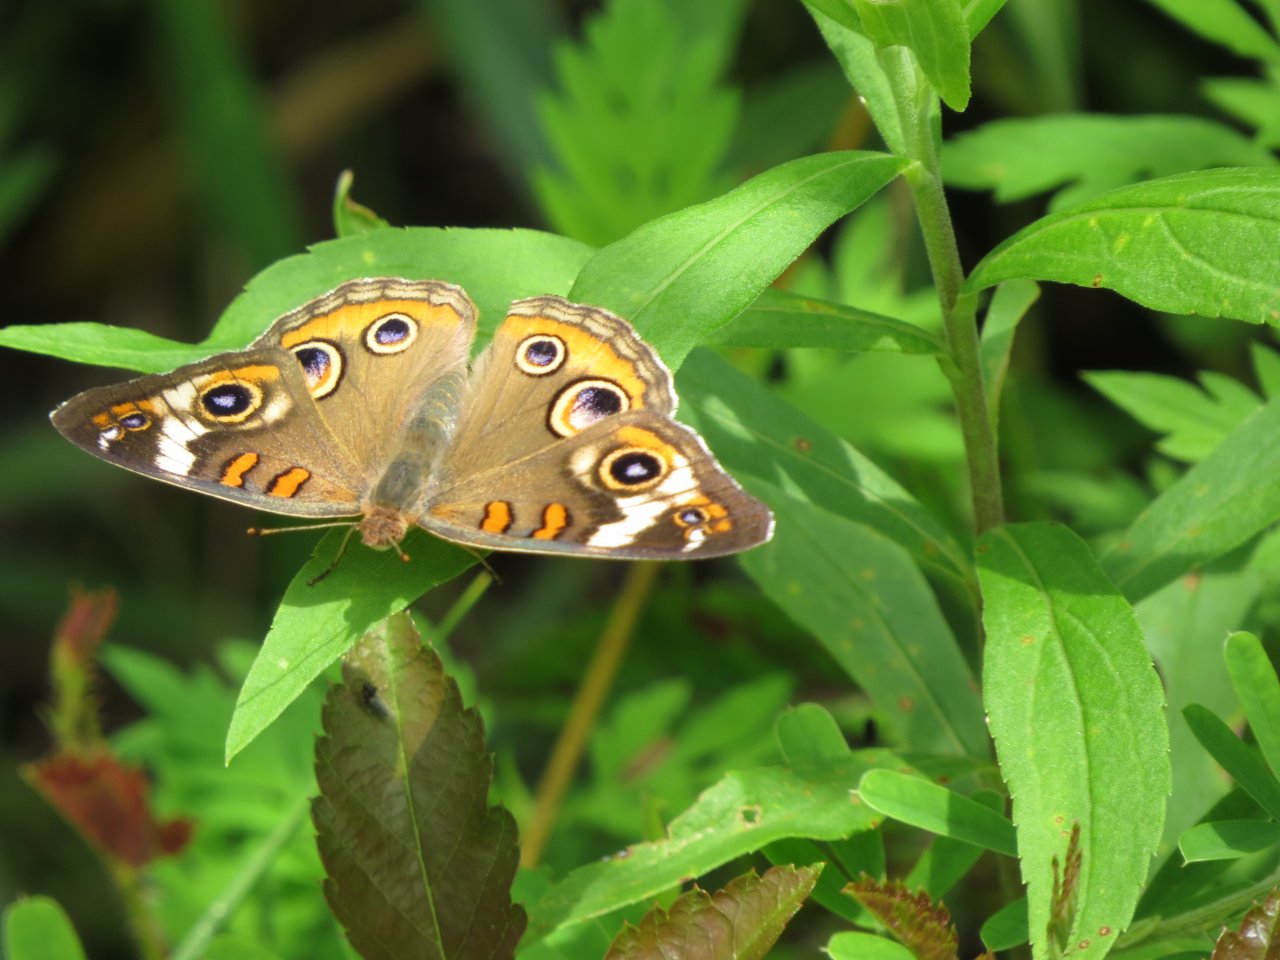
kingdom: Animalia
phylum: Arthropoda
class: Insecta
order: Lepidoptera
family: Nymphalidae
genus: Junonia
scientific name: Junonia coenia
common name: Common Buckeye
